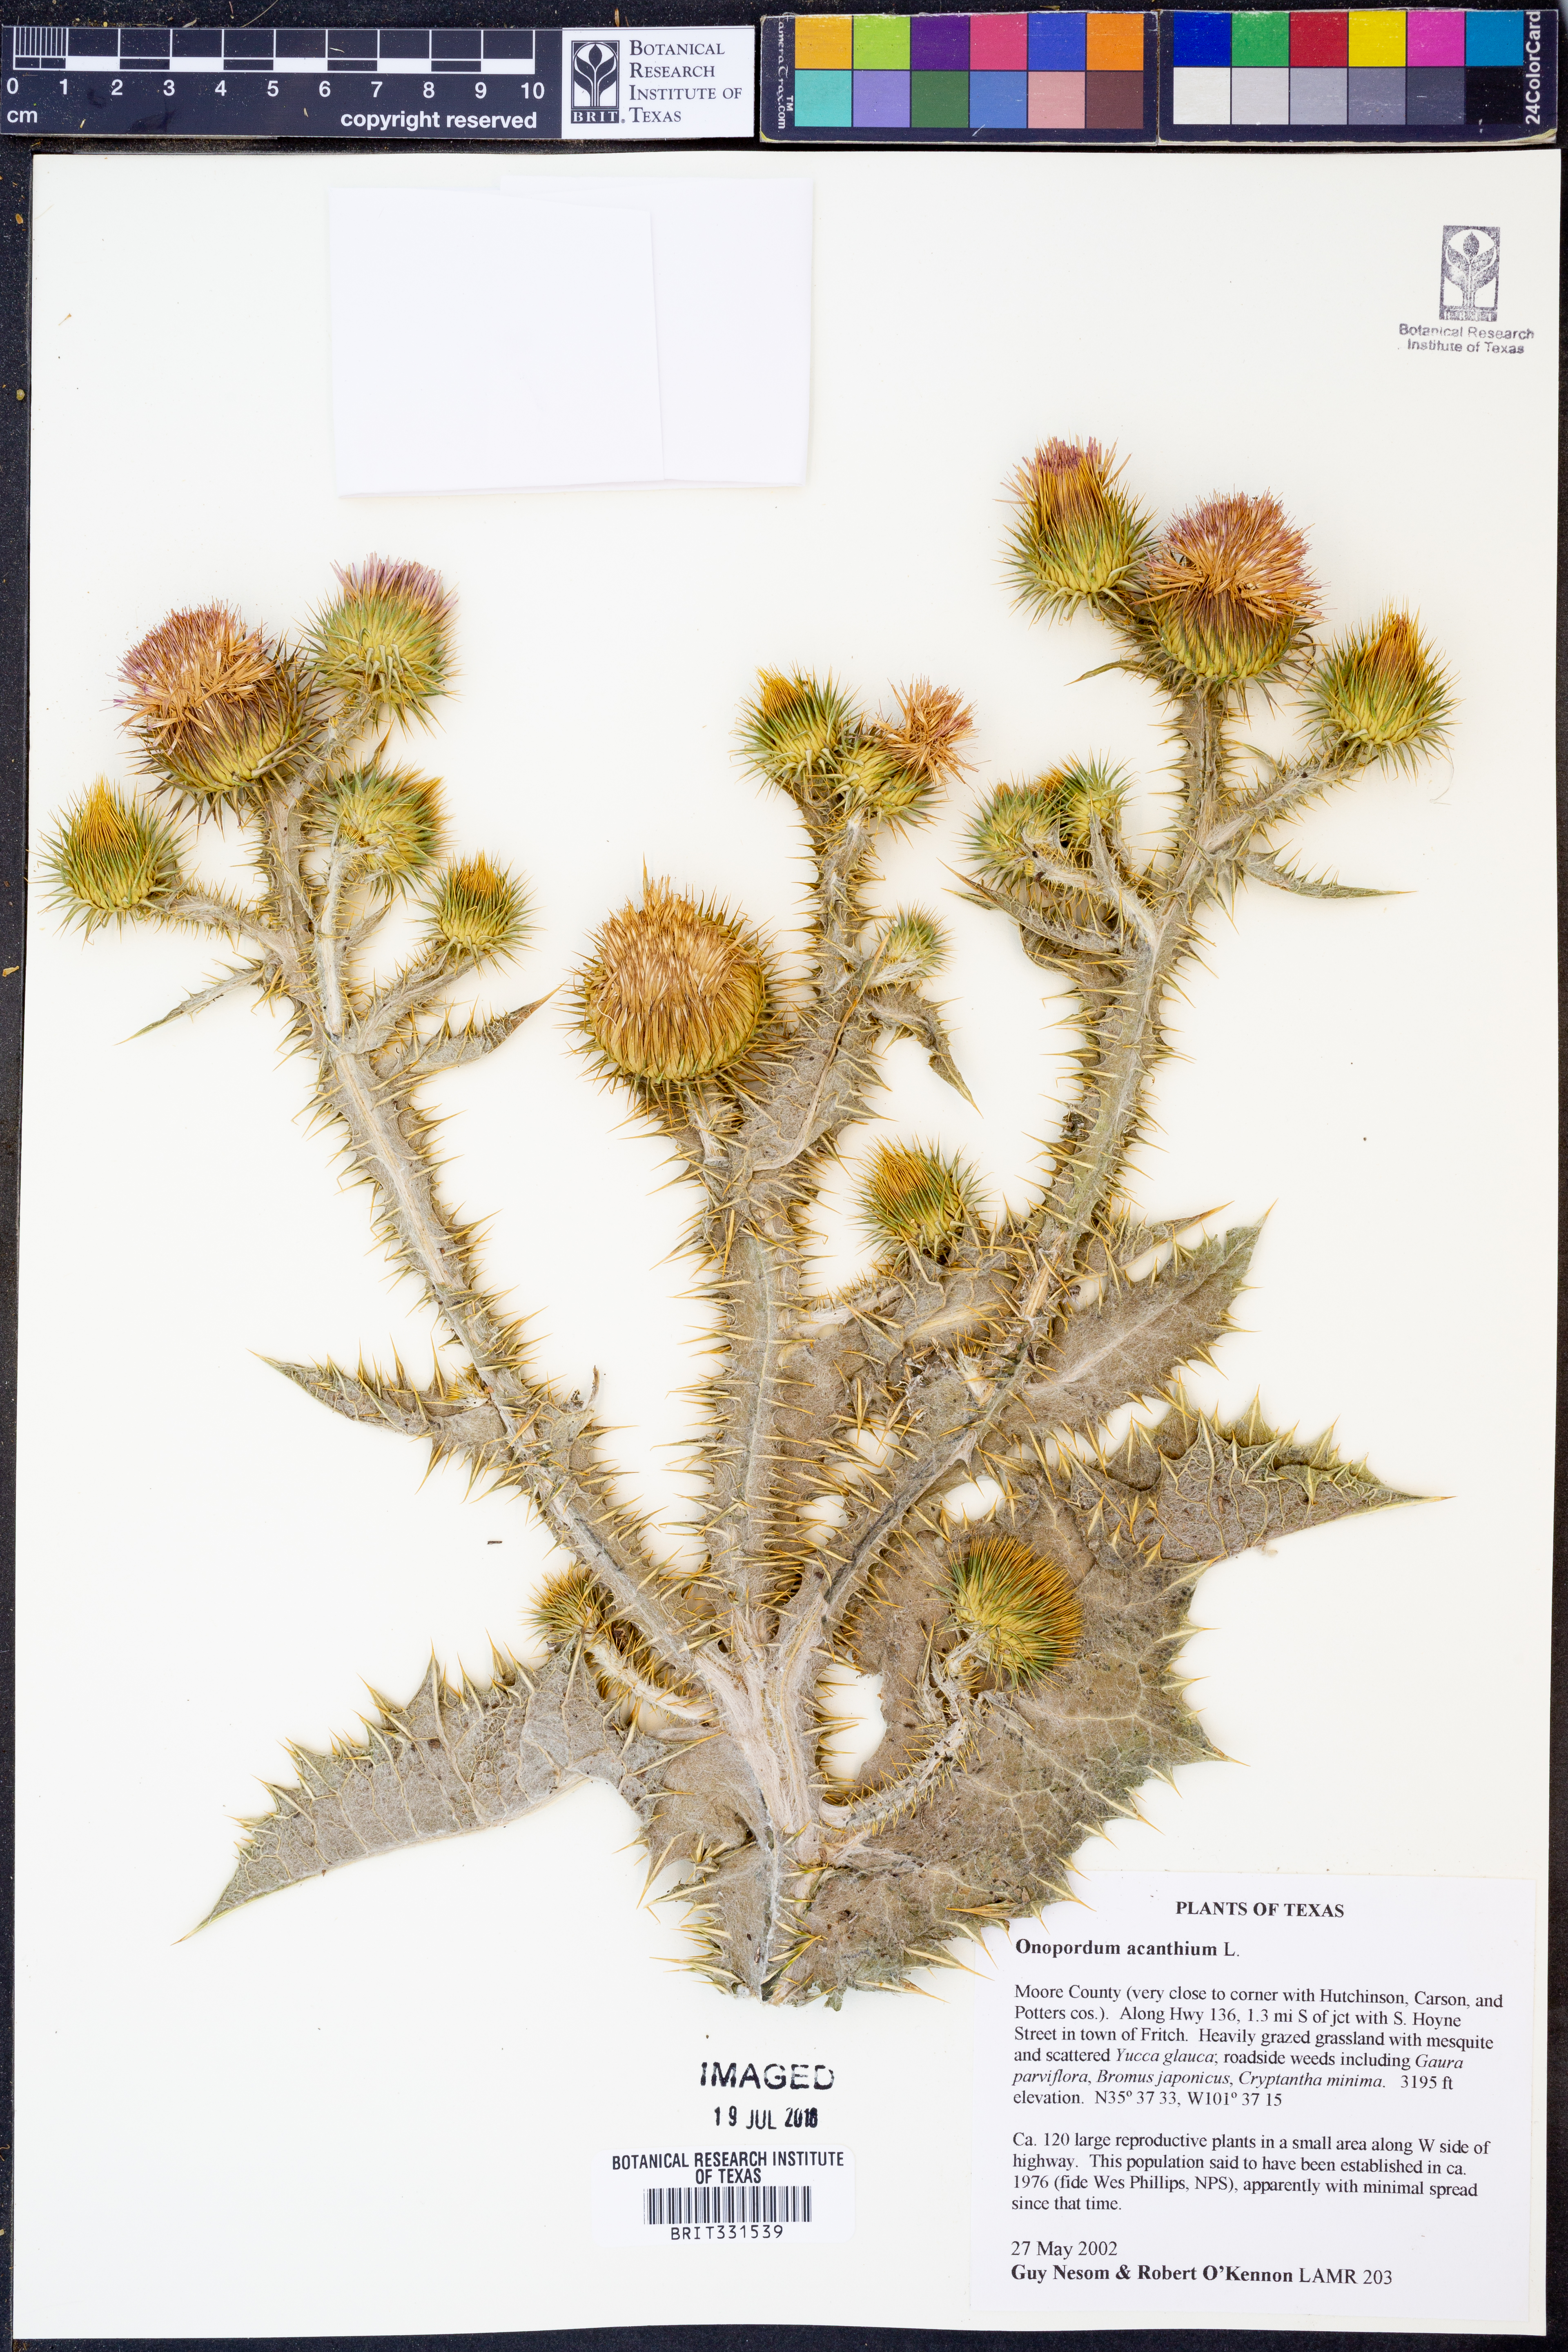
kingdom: Plantae
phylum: Tracheophyta
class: Magnoliopsida
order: Asterales
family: Asteraceae
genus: Onopordum
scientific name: Onopordum acanthium
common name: Scotch thistle
